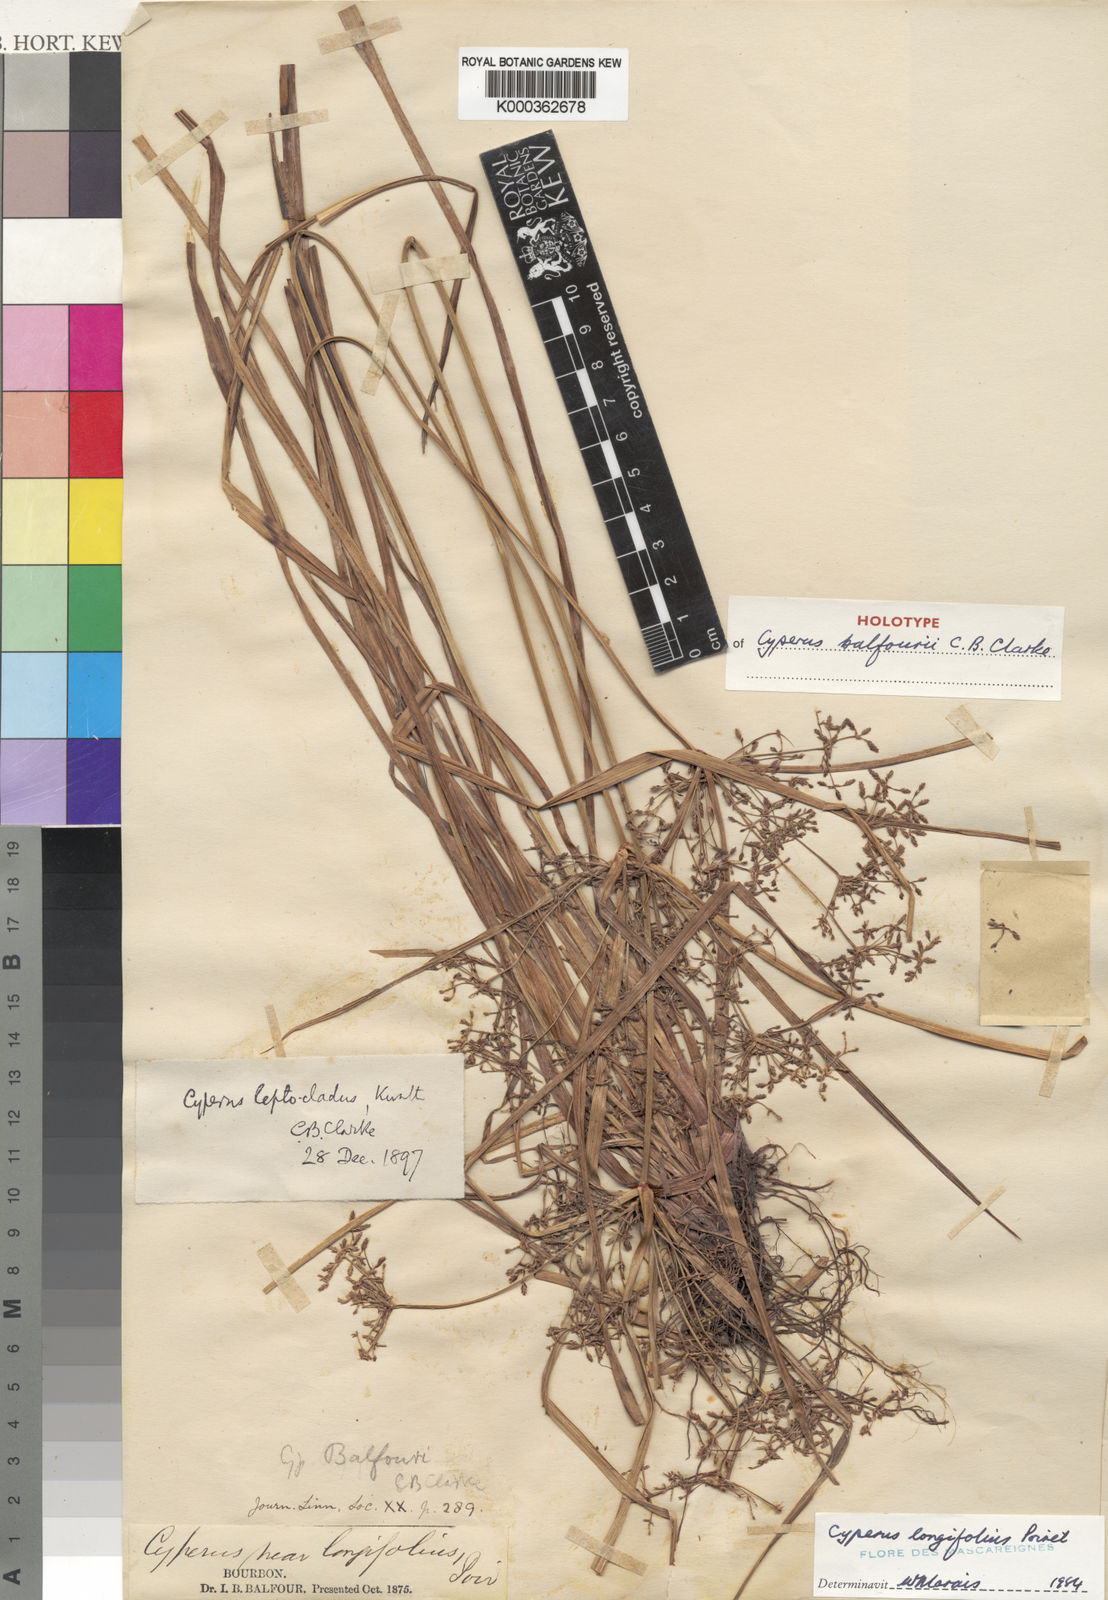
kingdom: Plantae
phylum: Tracheophyta
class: Liliopsida
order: Poales
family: Cyperaceae
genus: Cyperus
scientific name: Cyperus longifolius
